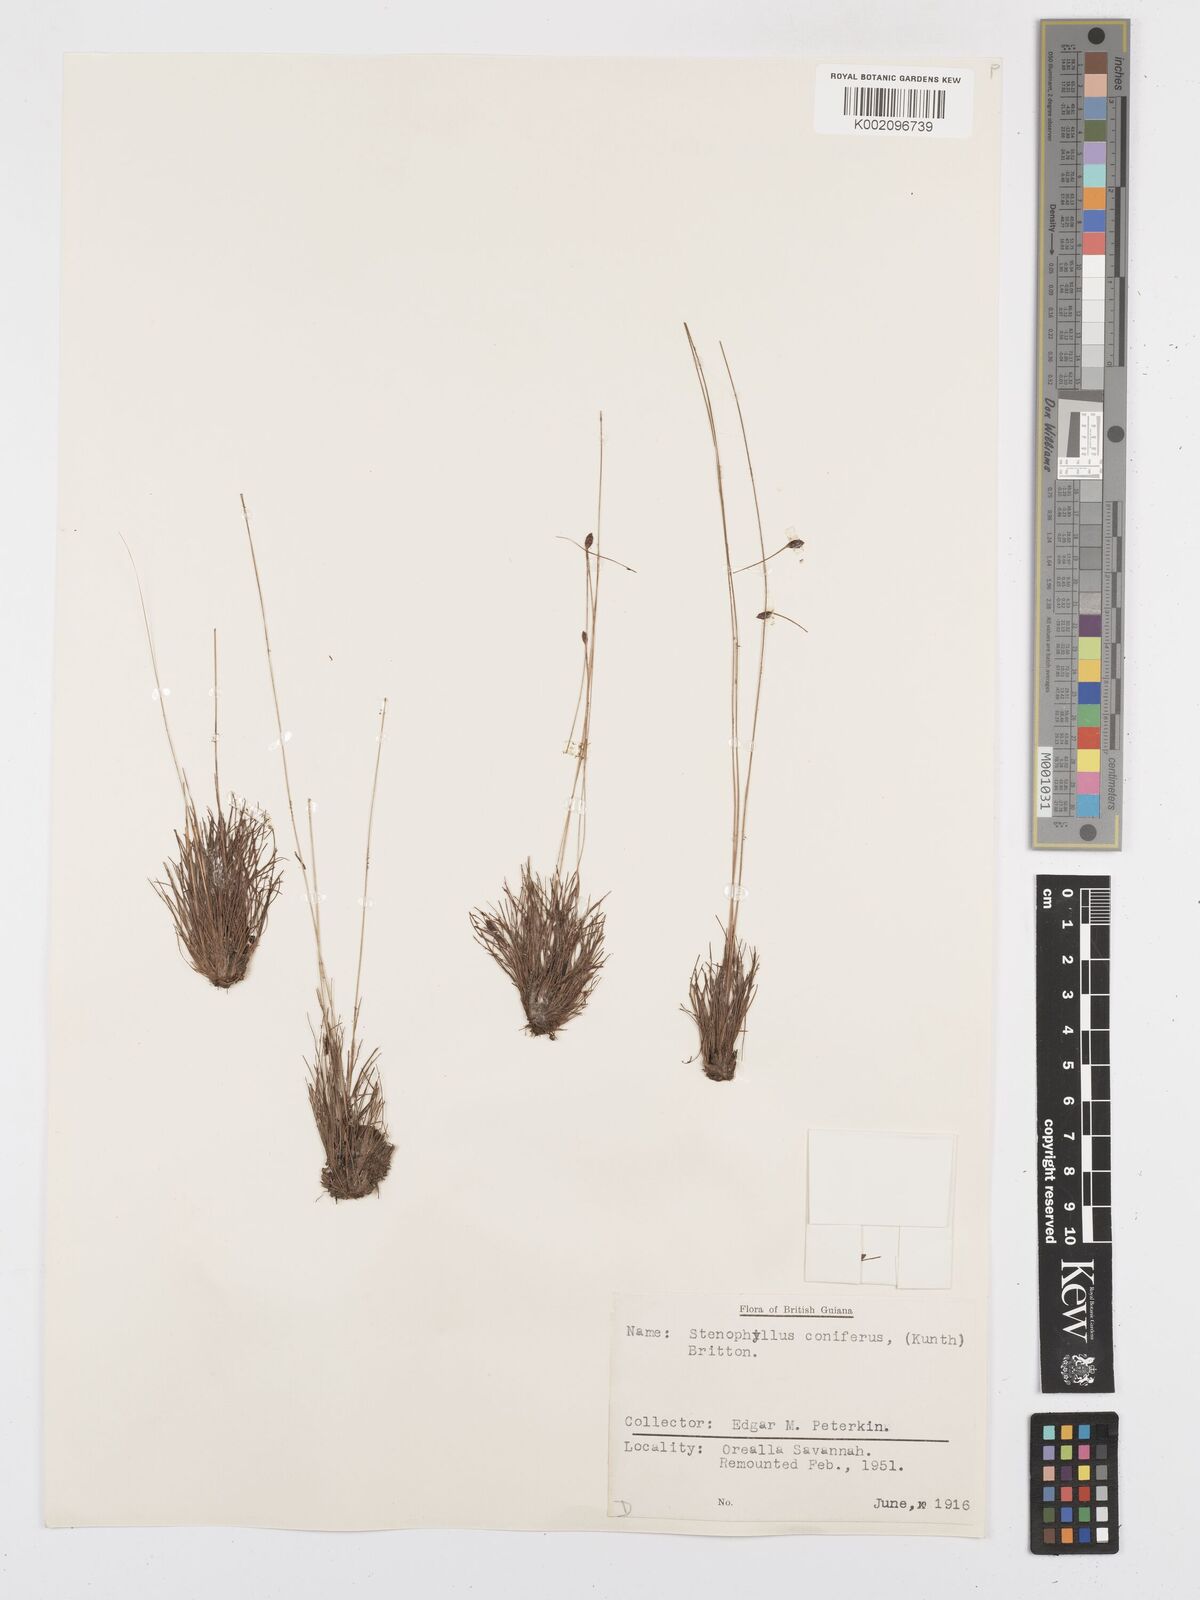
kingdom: Plantae
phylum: Tracheophyta
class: Liliopsida
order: Poales
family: Cyperaceae
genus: Bulbostylis
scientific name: Bulbostylis conifera
